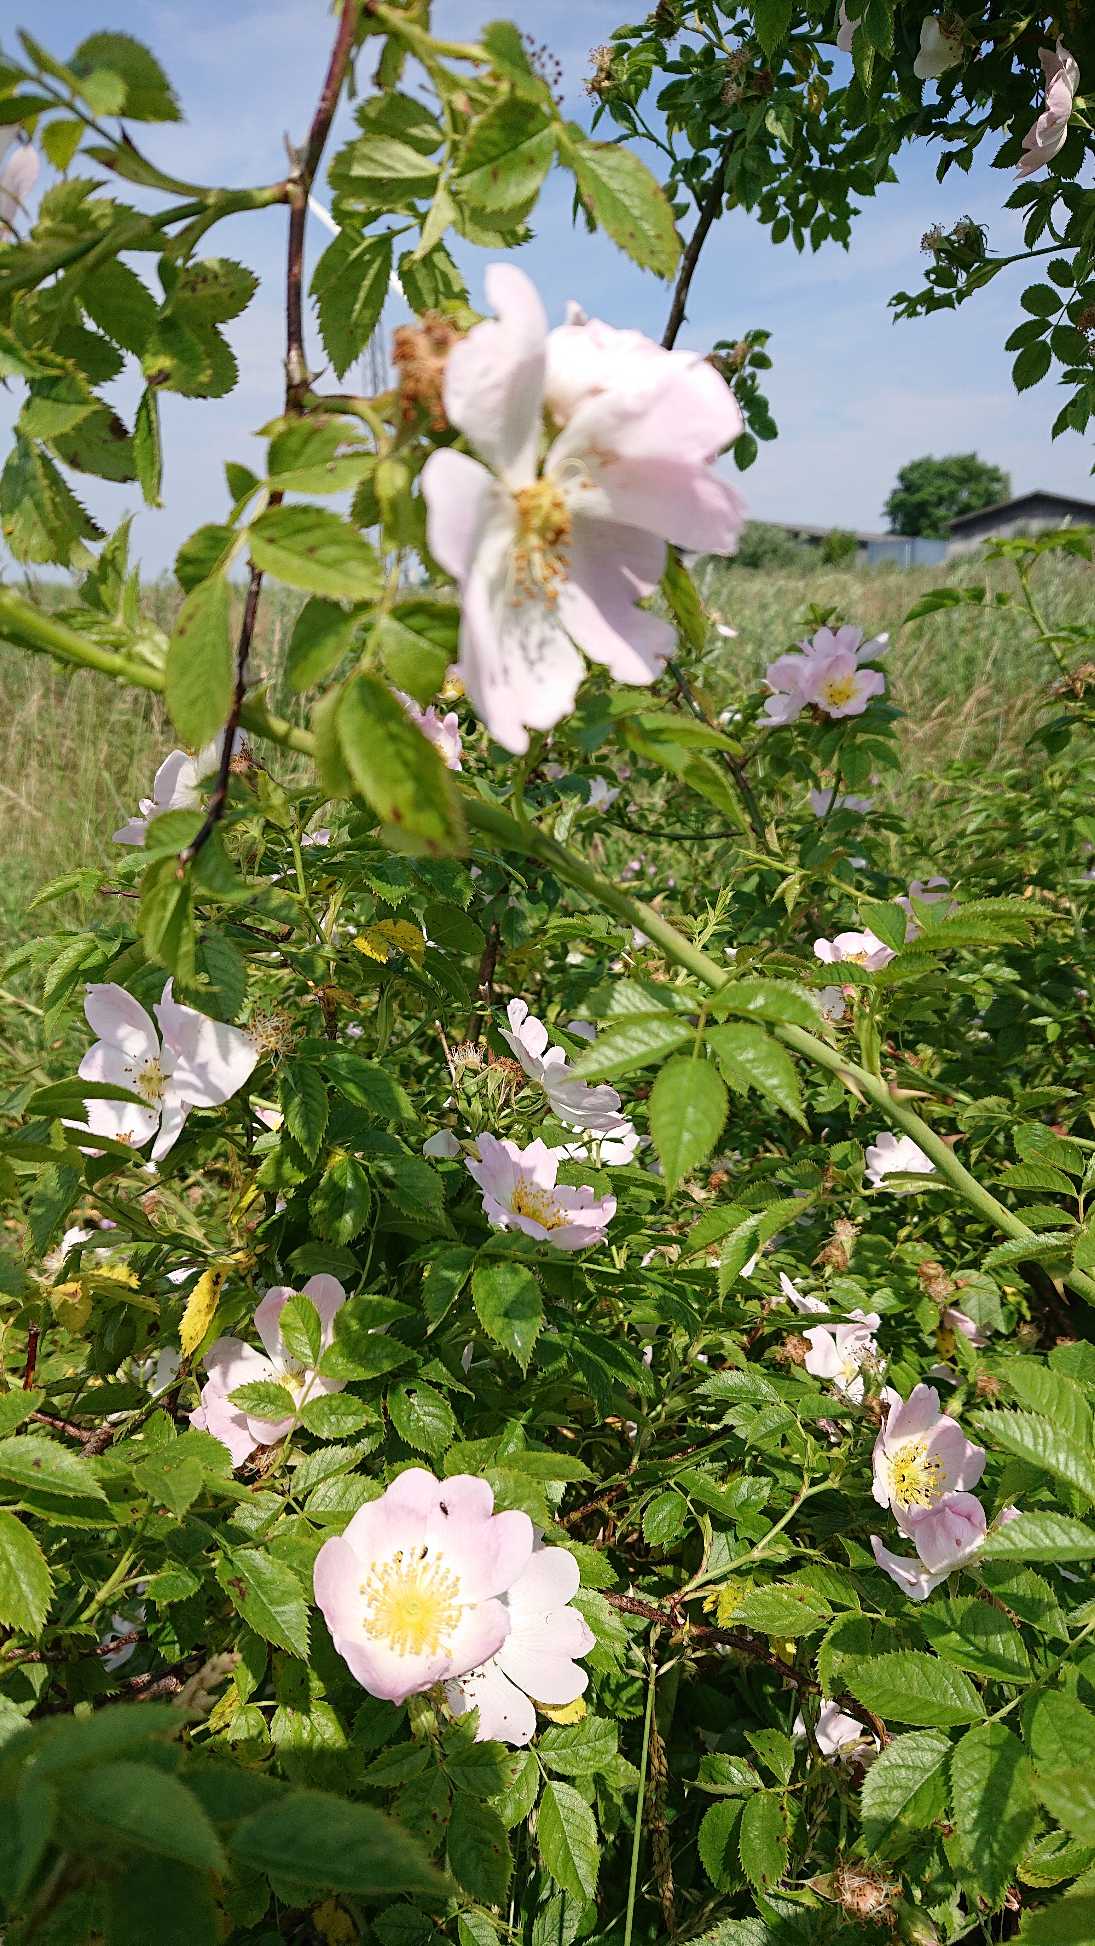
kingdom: Plantae
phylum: Tracheophyta
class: Magnoliopsida
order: Rosales
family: Rosaceae
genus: Rosa
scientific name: Rosa canina
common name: Glat hunde-rose
